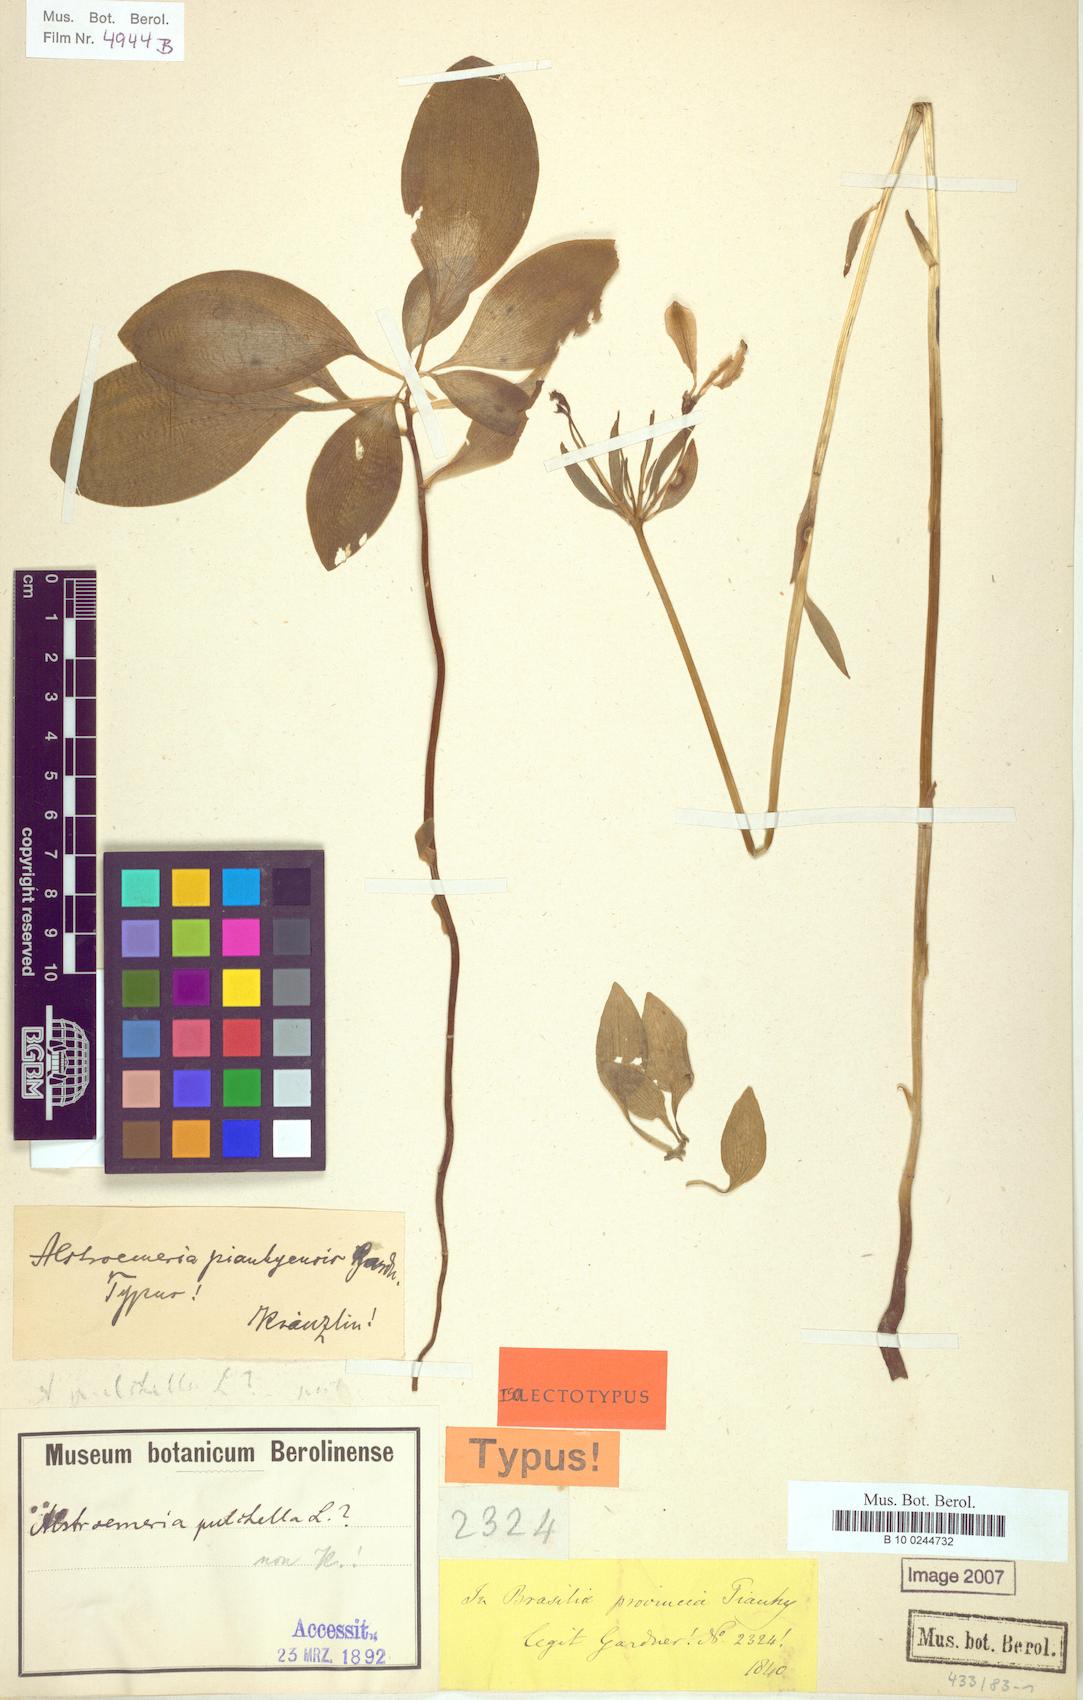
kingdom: Plantae
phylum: Tracheophyta
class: Liliopsida
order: Liliales
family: Alstroemeriaceae
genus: Alstroemeria
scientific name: Alstroemeria
